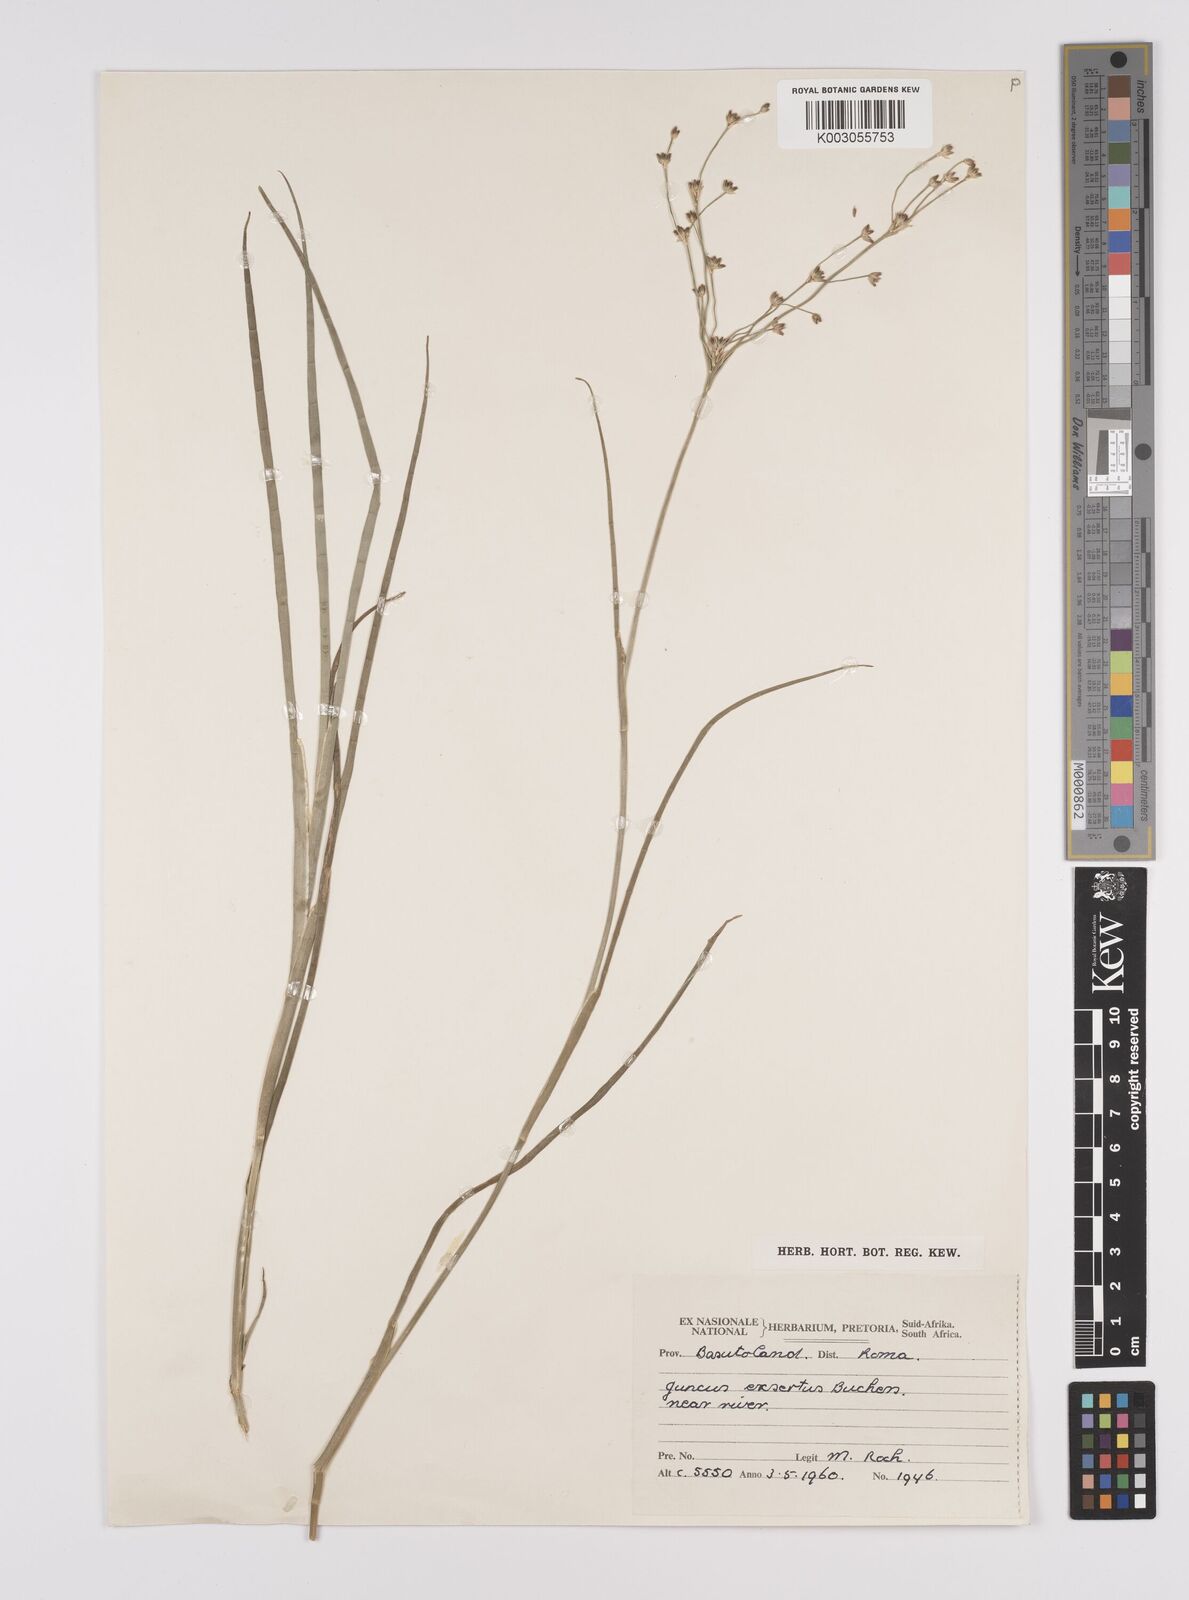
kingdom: Plantae
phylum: Tracheophyta
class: Liliopsida
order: Poales
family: Juncaceae
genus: Juncus
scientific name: Juncus exsertus
